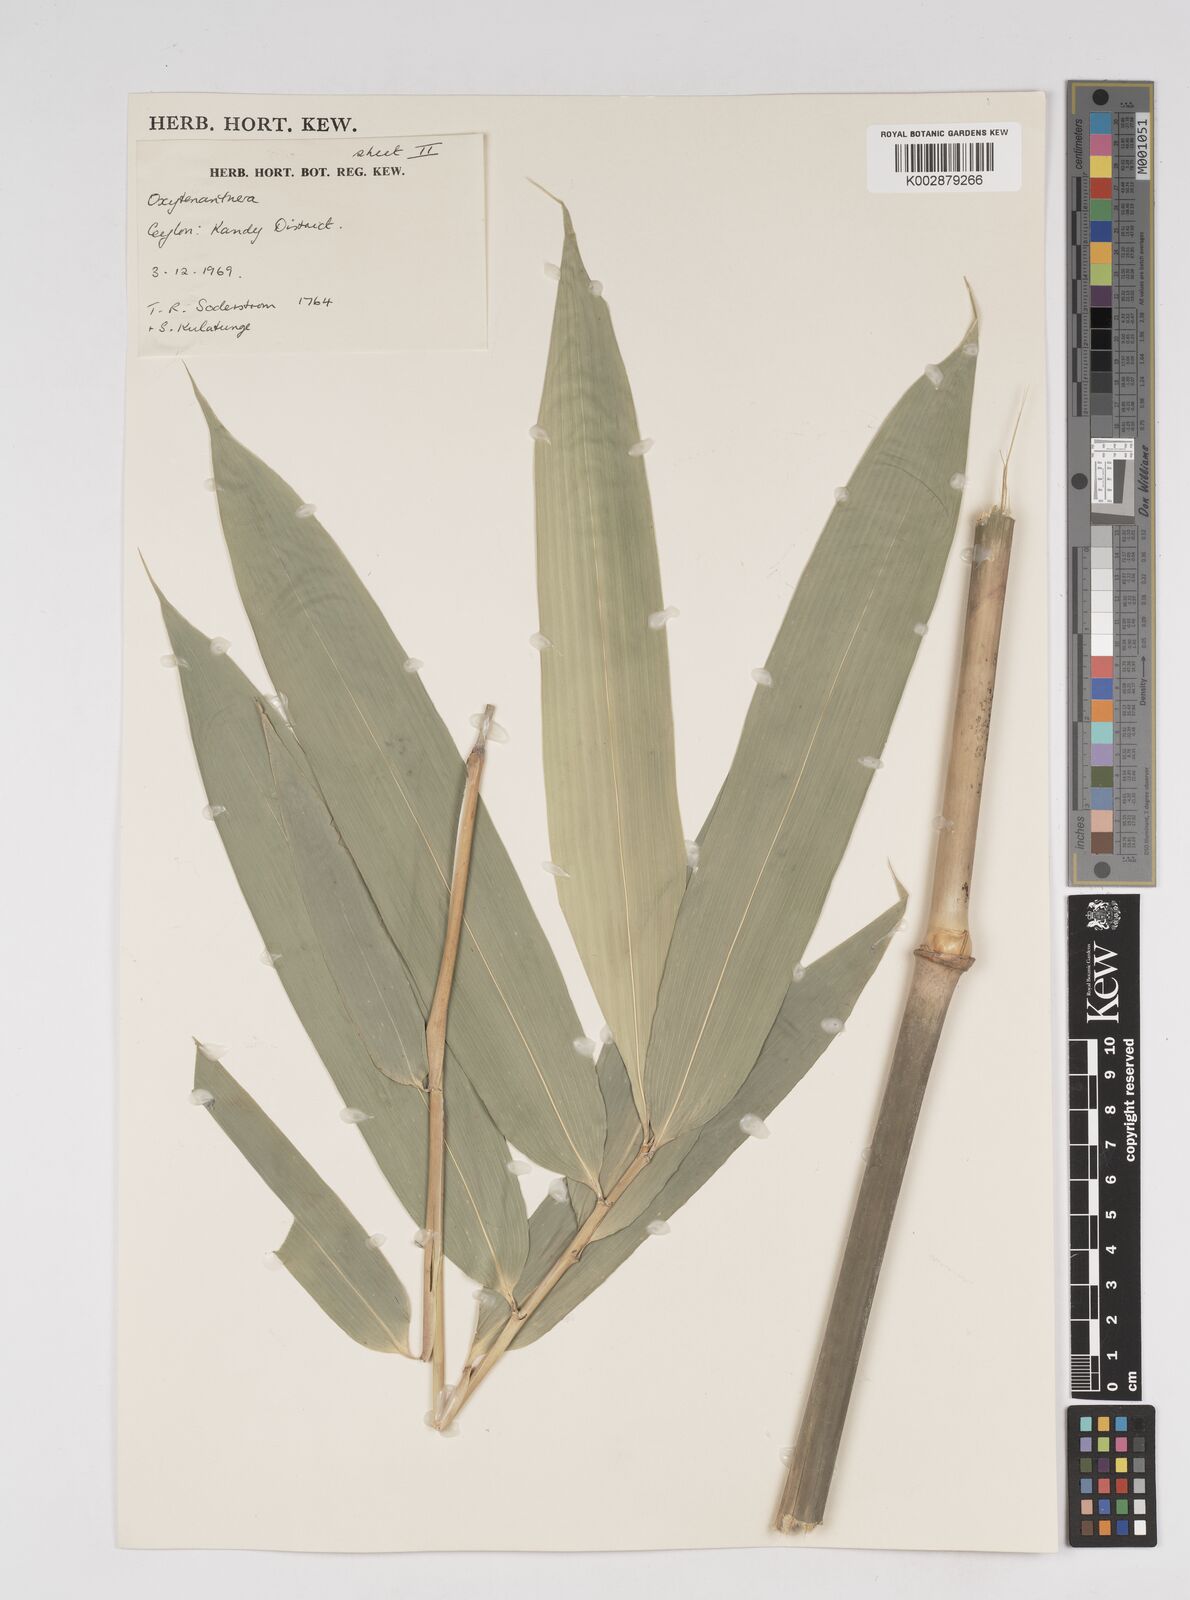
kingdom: Plantae
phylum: Tracheophyta
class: Liliopsida
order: Poales
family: Poaceae
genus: Dendrocalamus
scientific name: Dendrocalamus
